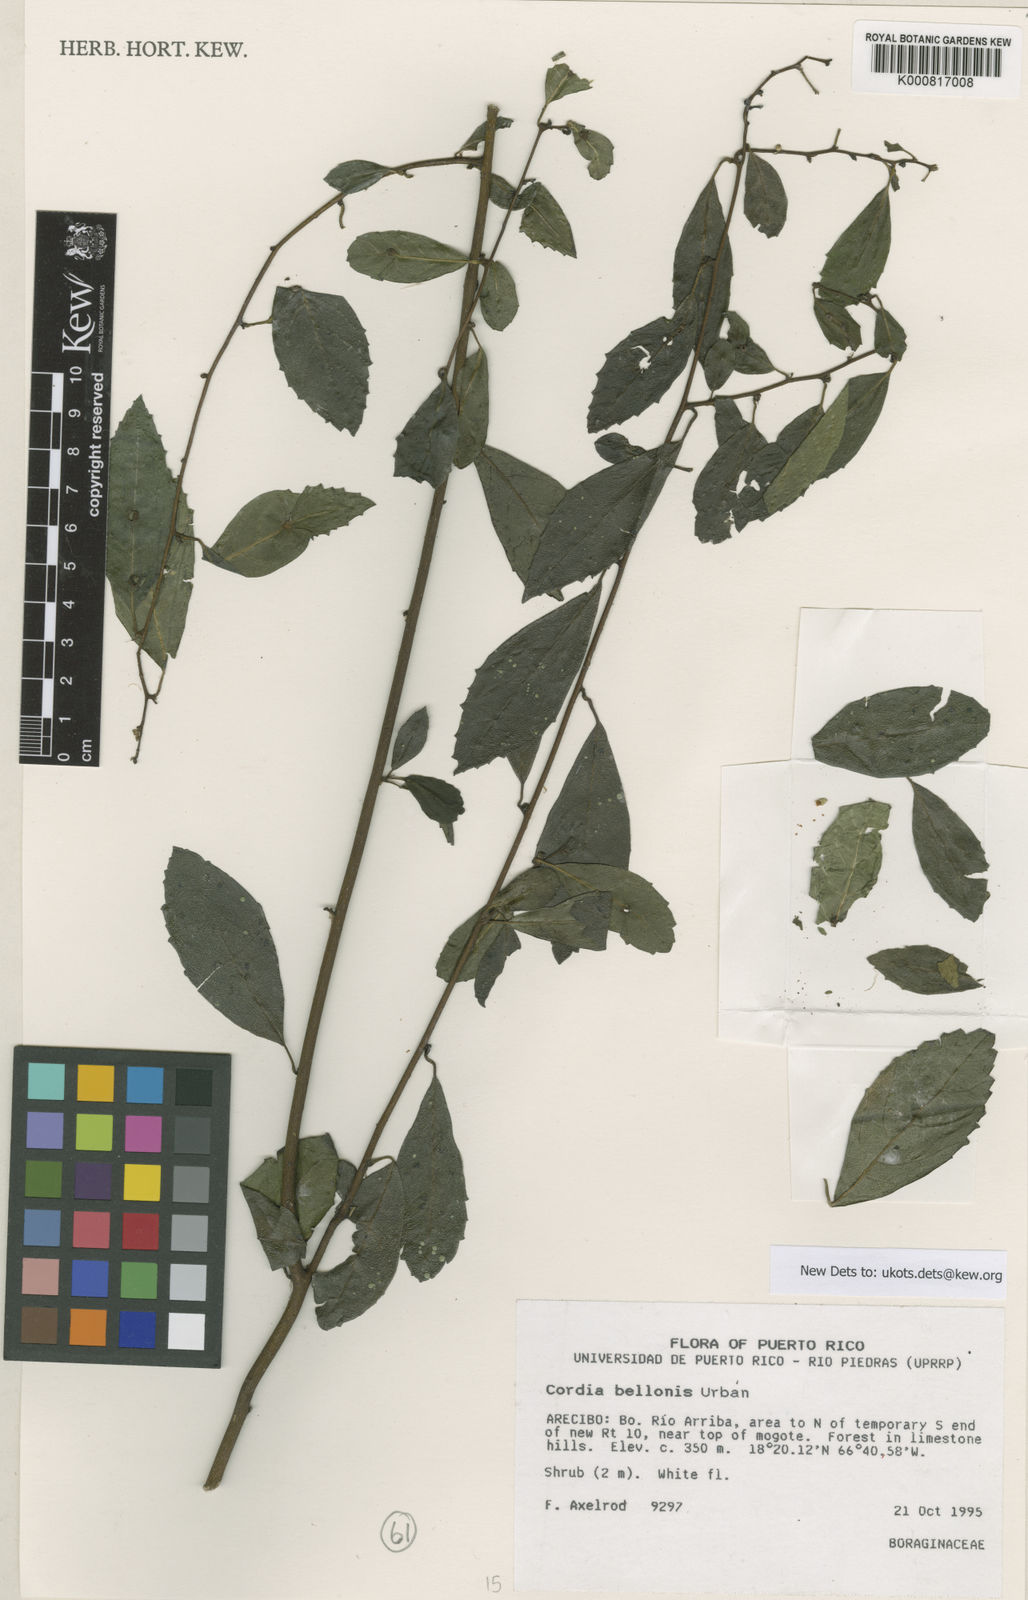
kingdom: Plantae
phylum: Tracheophyta
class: Magnoliopsida
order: Boraginales
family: Cordiaceae
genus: Varronia
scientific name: Varronia bellonis
